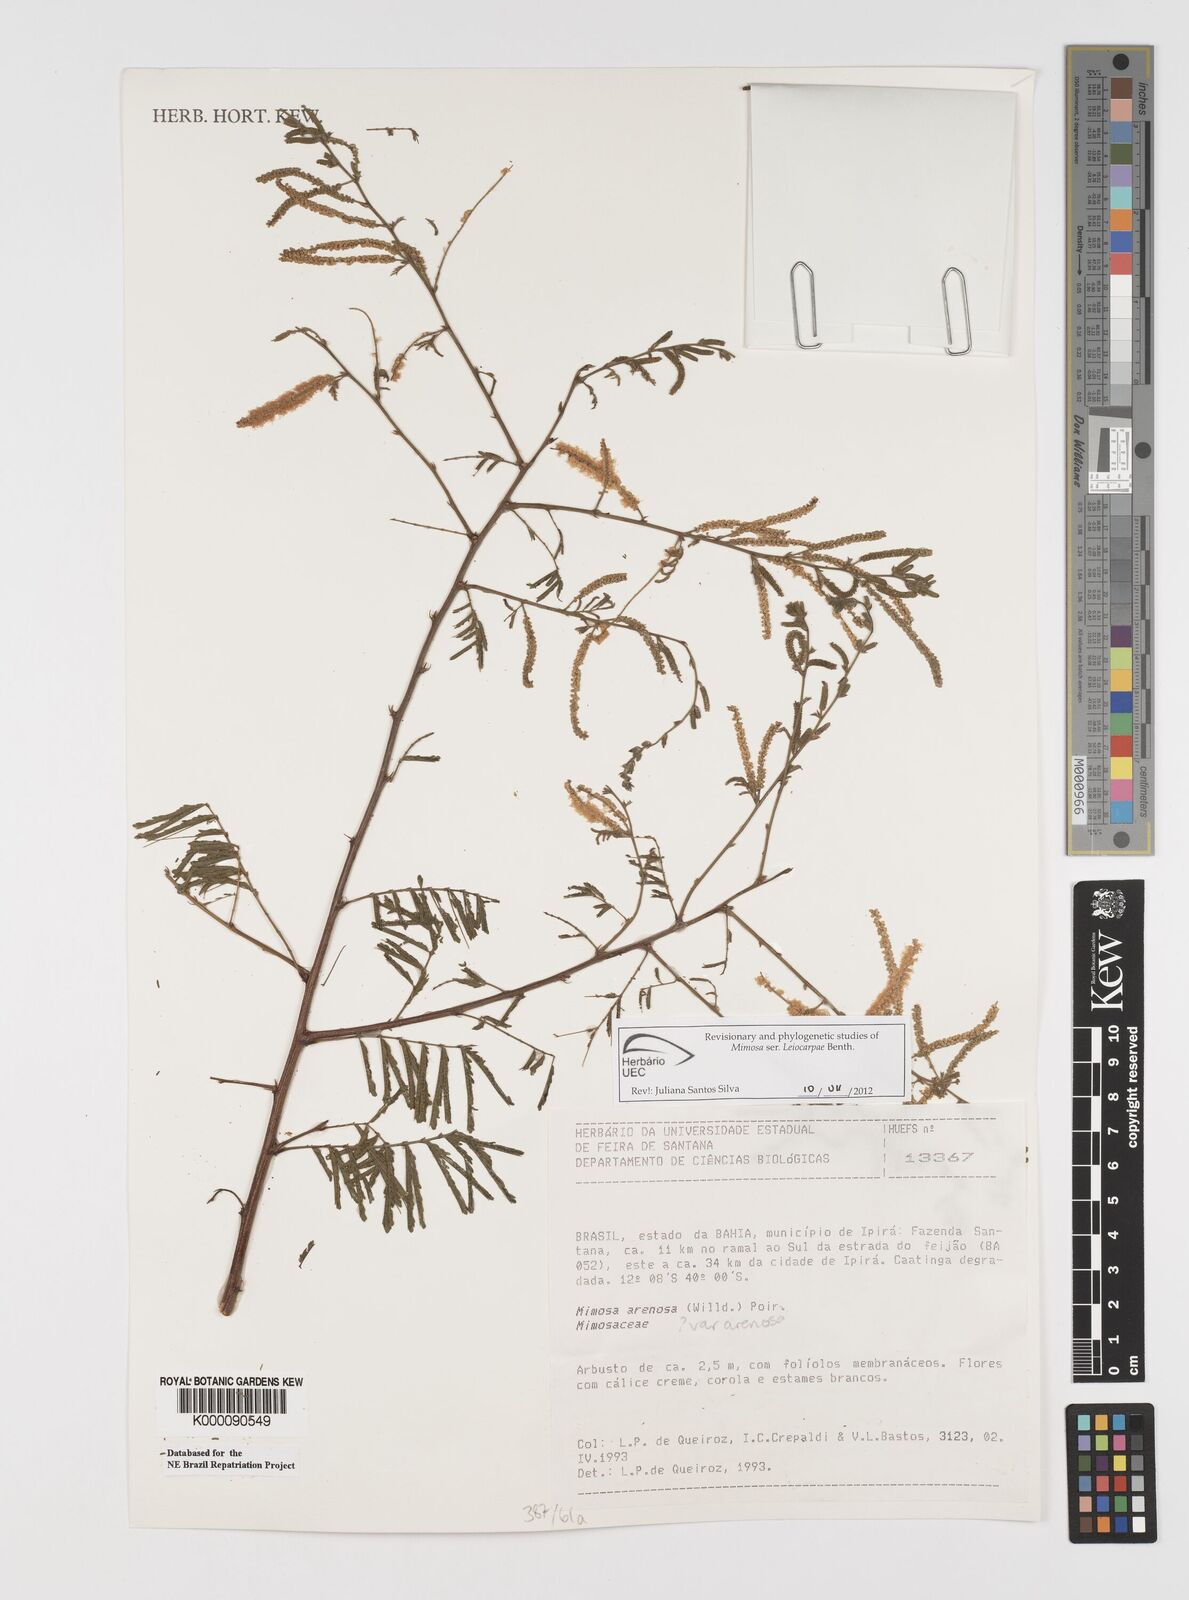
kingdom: Plantae
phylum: Tracheophyta
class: Magnoliopsida
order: Fabales
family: Fabaceae
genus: Mimosa
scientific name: Mimosa arenosa
